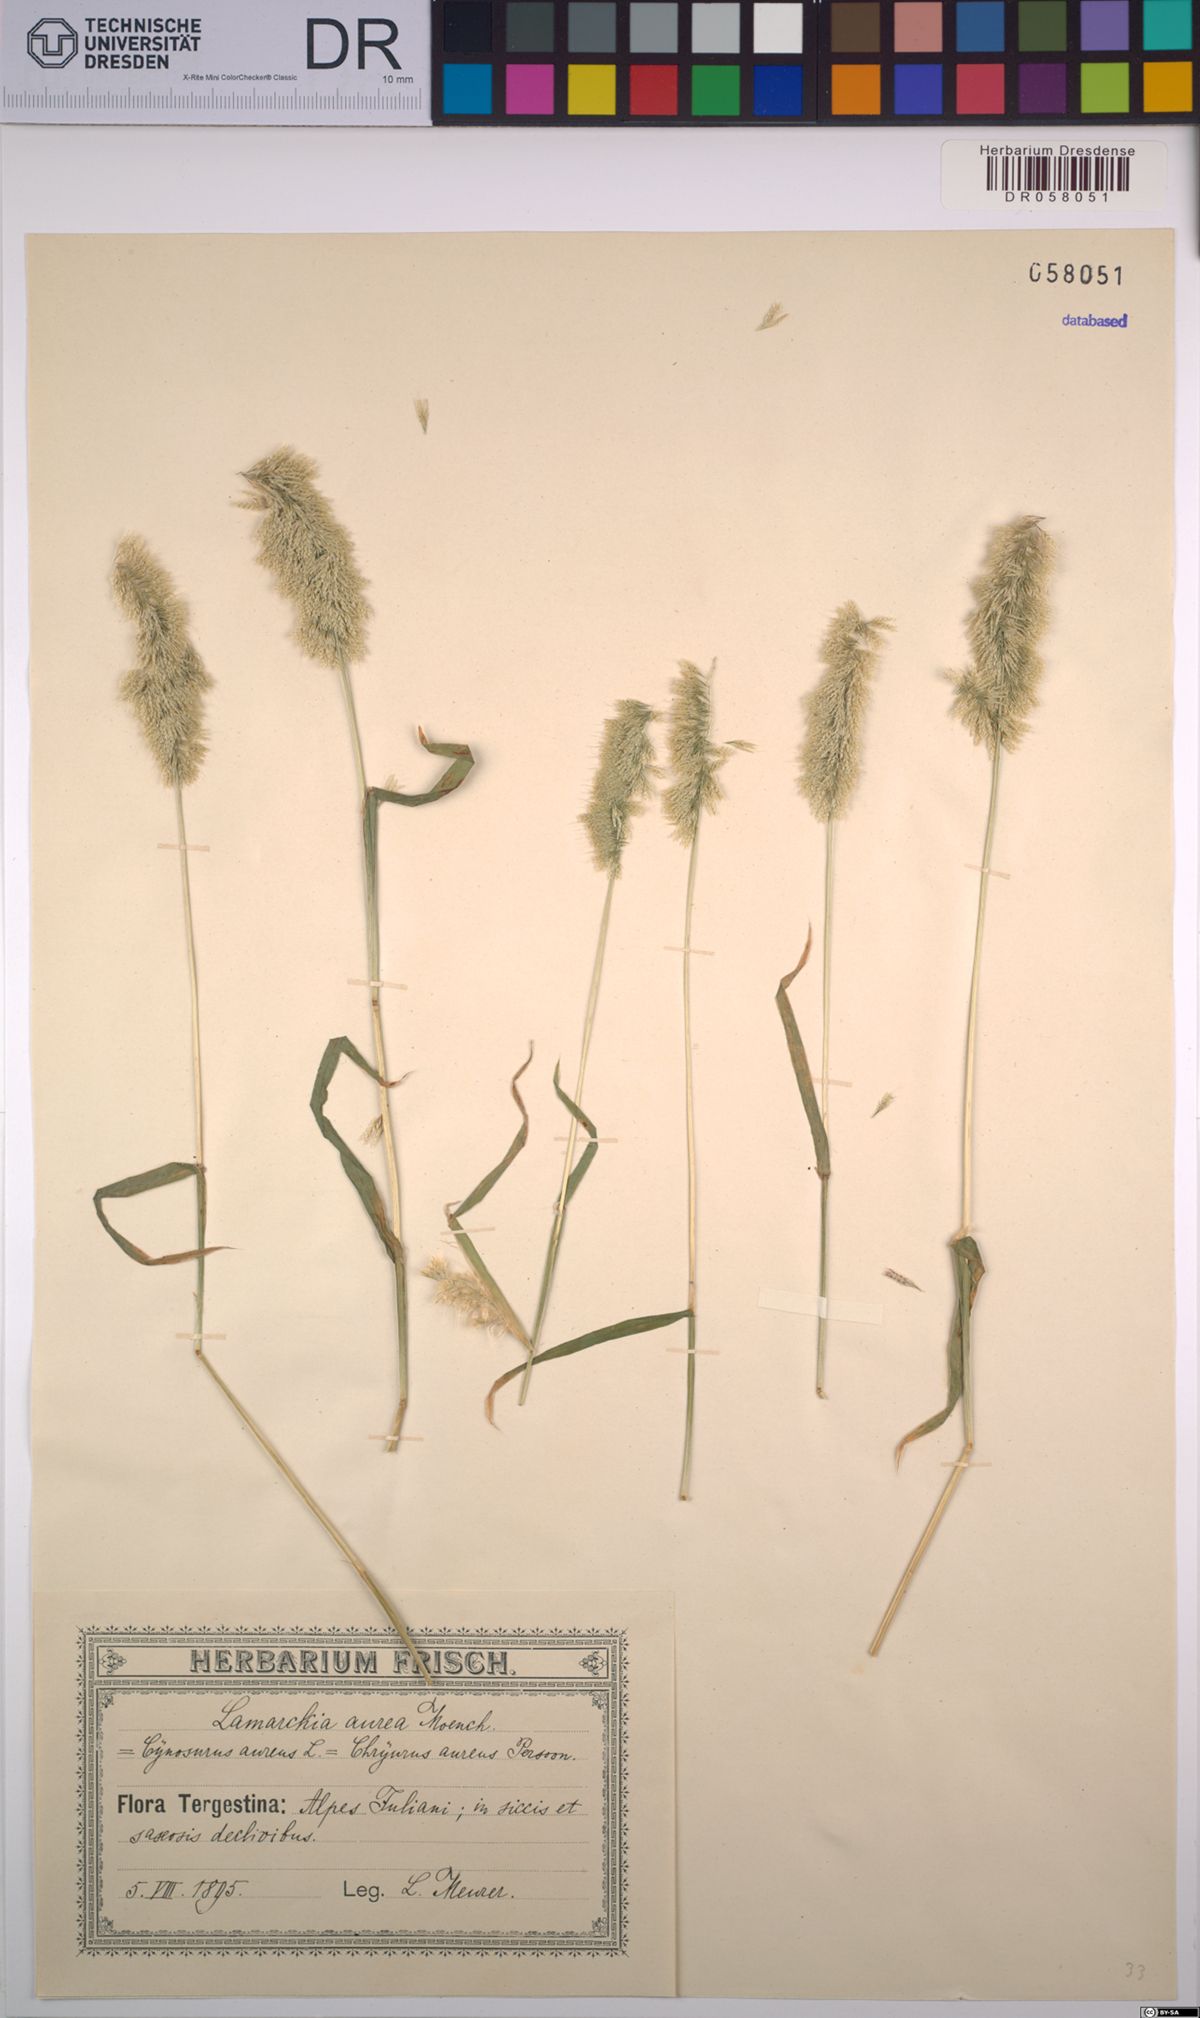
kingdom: Plantae
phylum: Tracheophyta
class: Liliopsida
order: Poales
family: Poaceae
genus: Lamarckia
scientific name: Lamarckia aurea
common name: Golden dog's-tail
